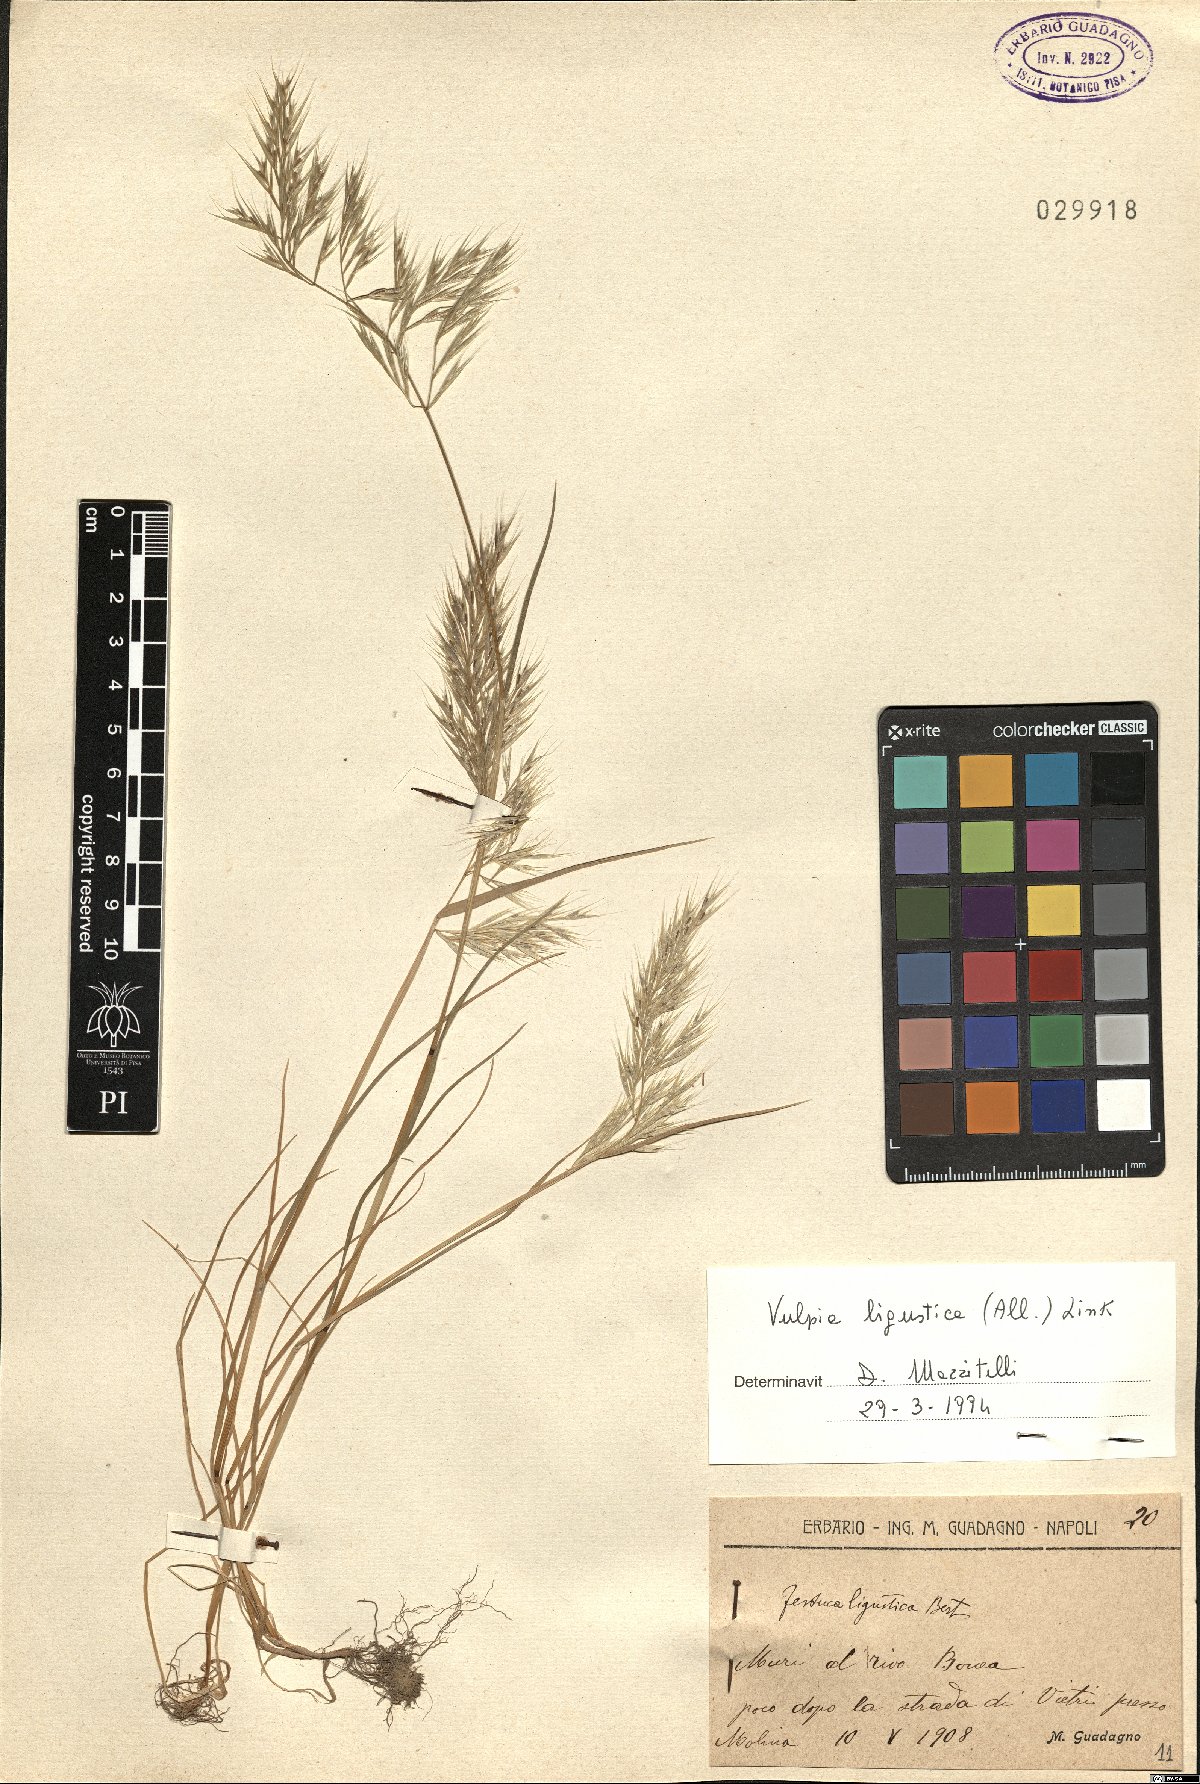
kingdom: Plantae
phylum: Tracheophyta
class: Liliopsida
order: Poales
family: Poaceae
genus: Festuca
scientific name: Festuca ligustica
